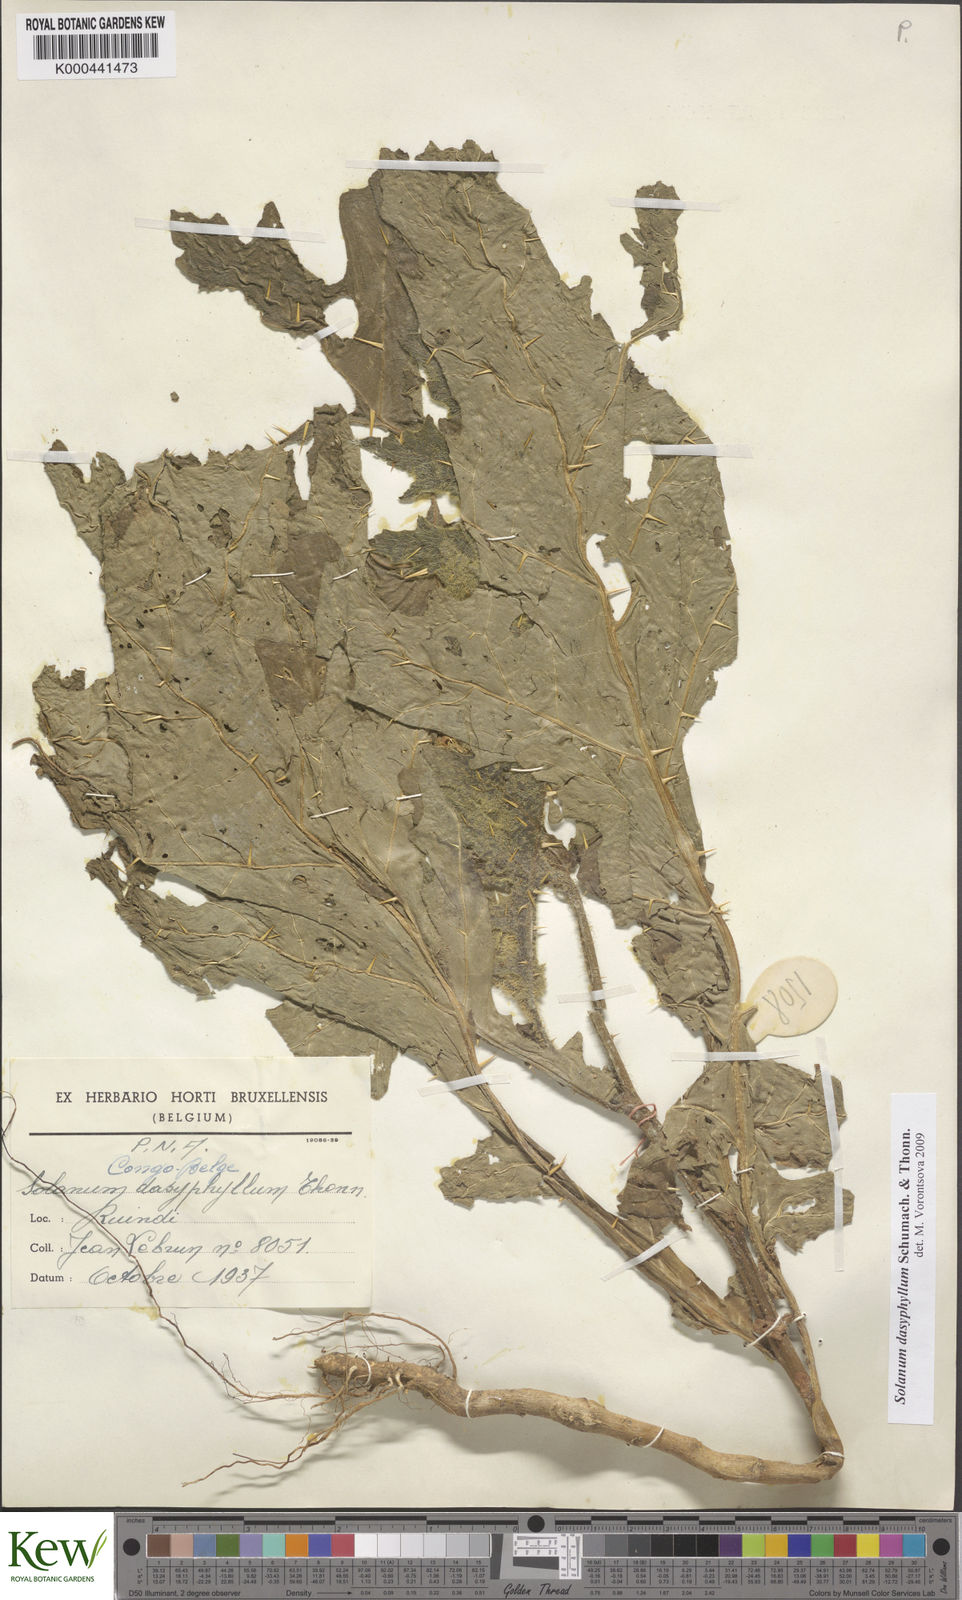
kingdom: Plantae
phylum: Tracheophyta
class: Magnoliopsida
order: Solanales
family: Solanaceae
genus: Solanum
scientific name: Solanum dasyphyllum
